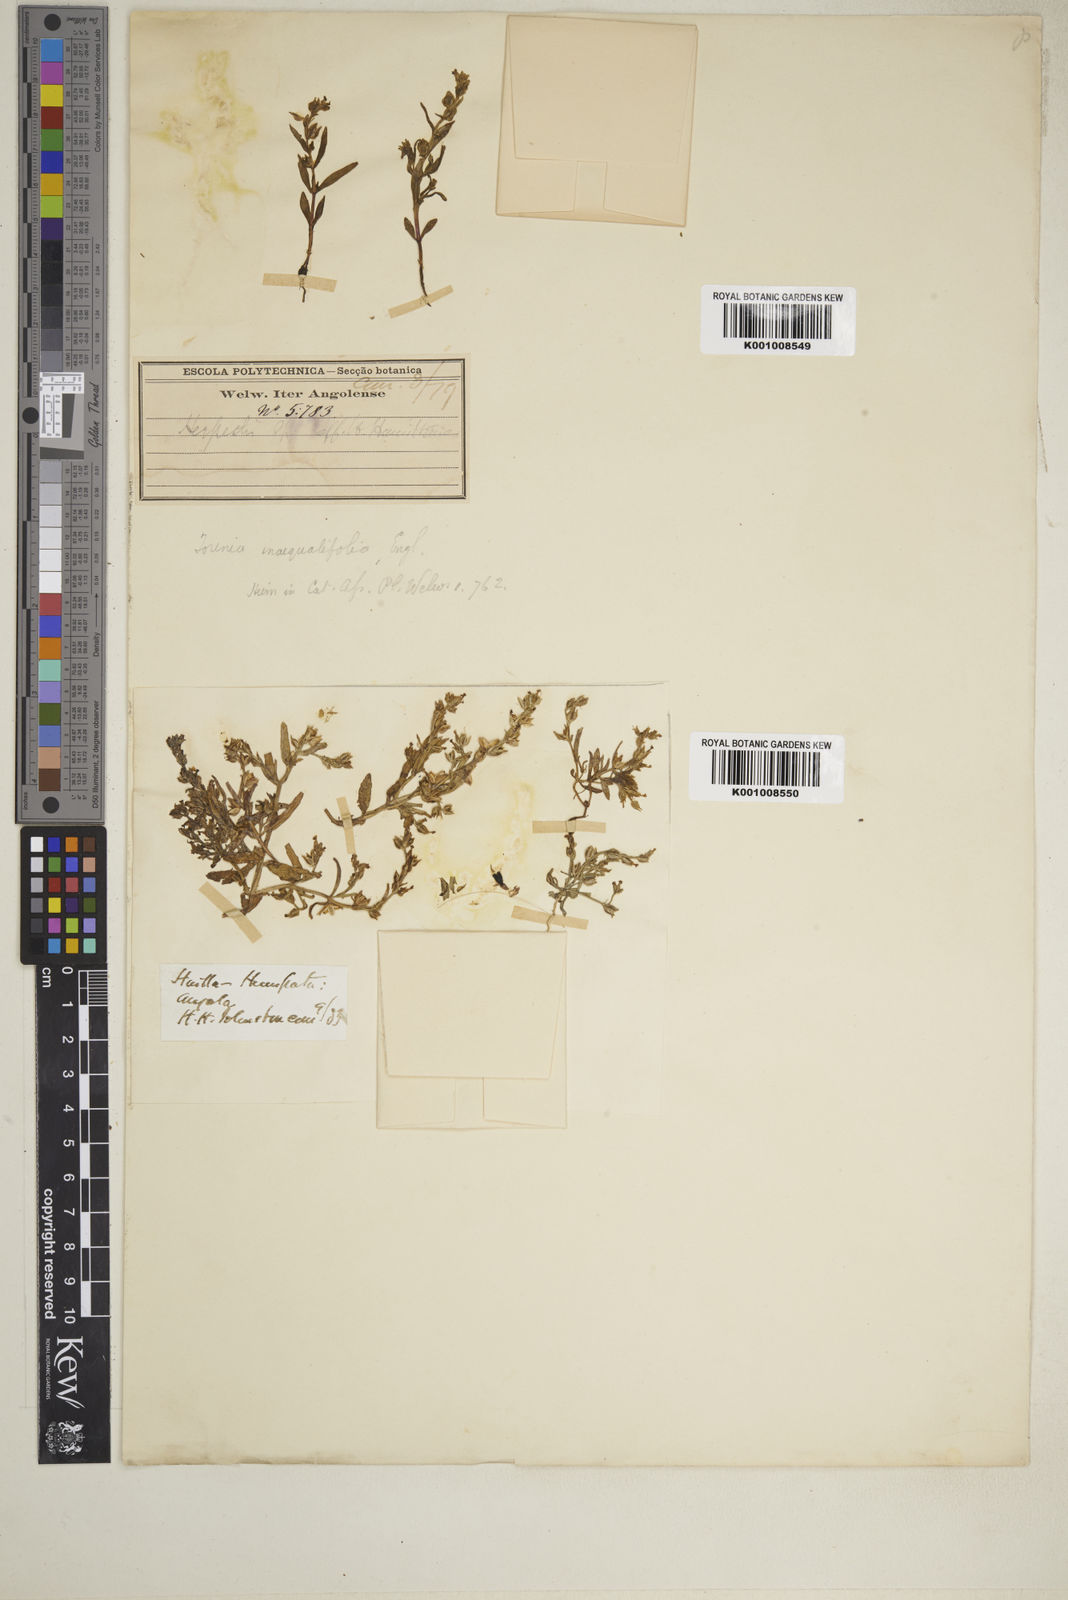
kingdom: Plantae
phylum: Tracheophyta
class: Magnoliopsida
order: Lamiales
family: Linderniaceae
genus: Crepidorhopalon
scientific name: Crepidorhopalon spicatus
